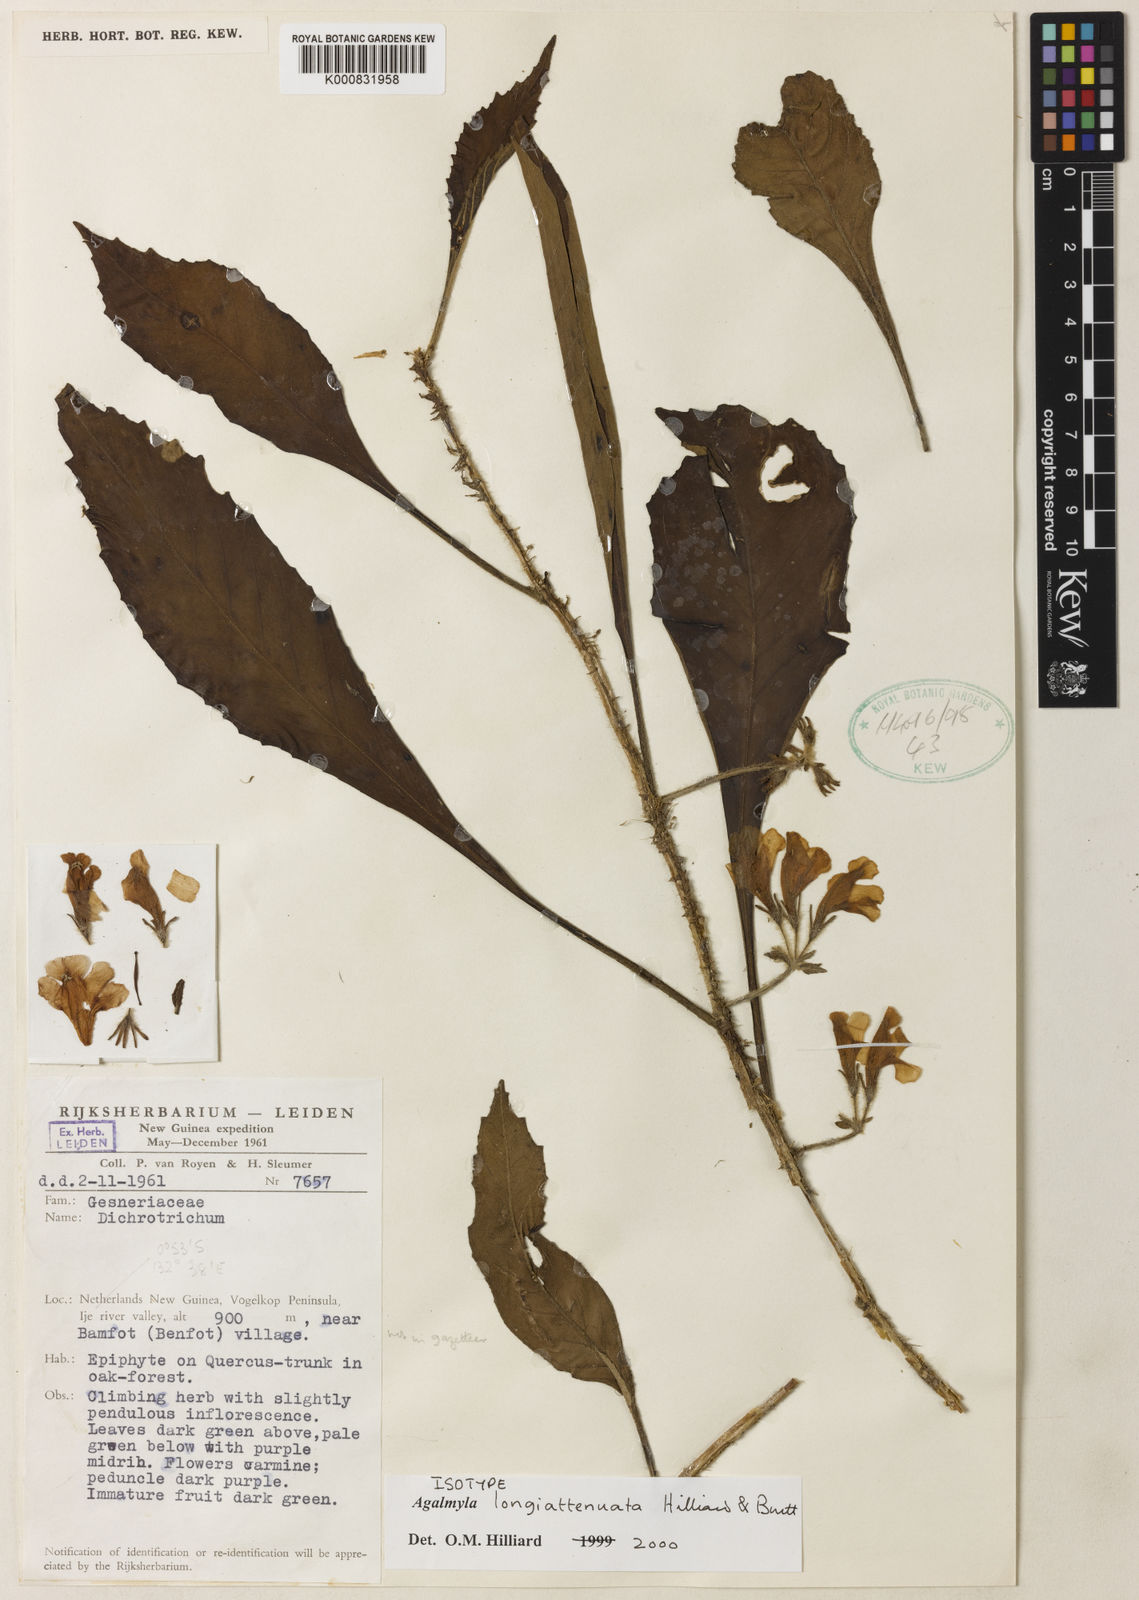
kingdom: Plantae
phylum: Tracheophyta
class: Magnoliopsida
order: Lamiales
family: Gesneriaceae
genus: Agalmyla
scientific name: Agalmyla longiattenuata
